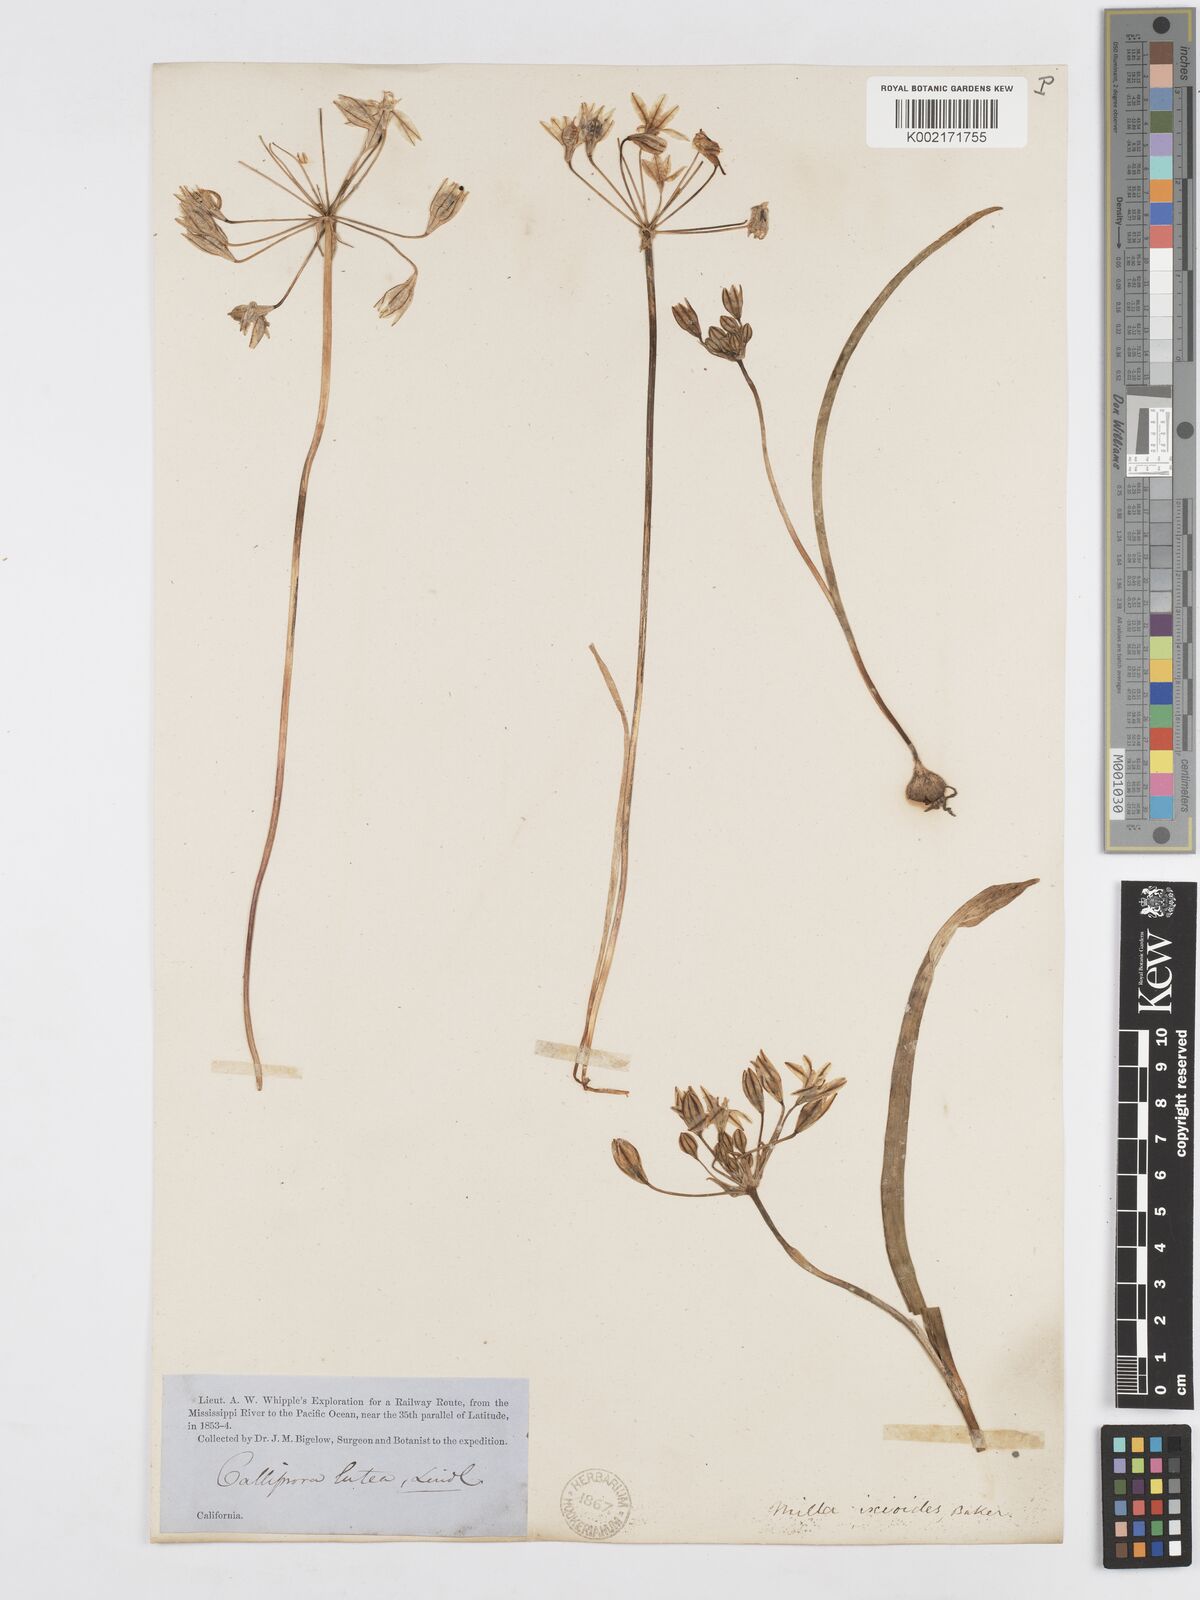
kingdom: Plantae
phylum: Tracheophyta
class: Liliopsida
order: Asparagales
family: Asparagaceae
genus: Triteleia
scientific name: Triteleia ixioides
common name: Yellow-brodiaea
